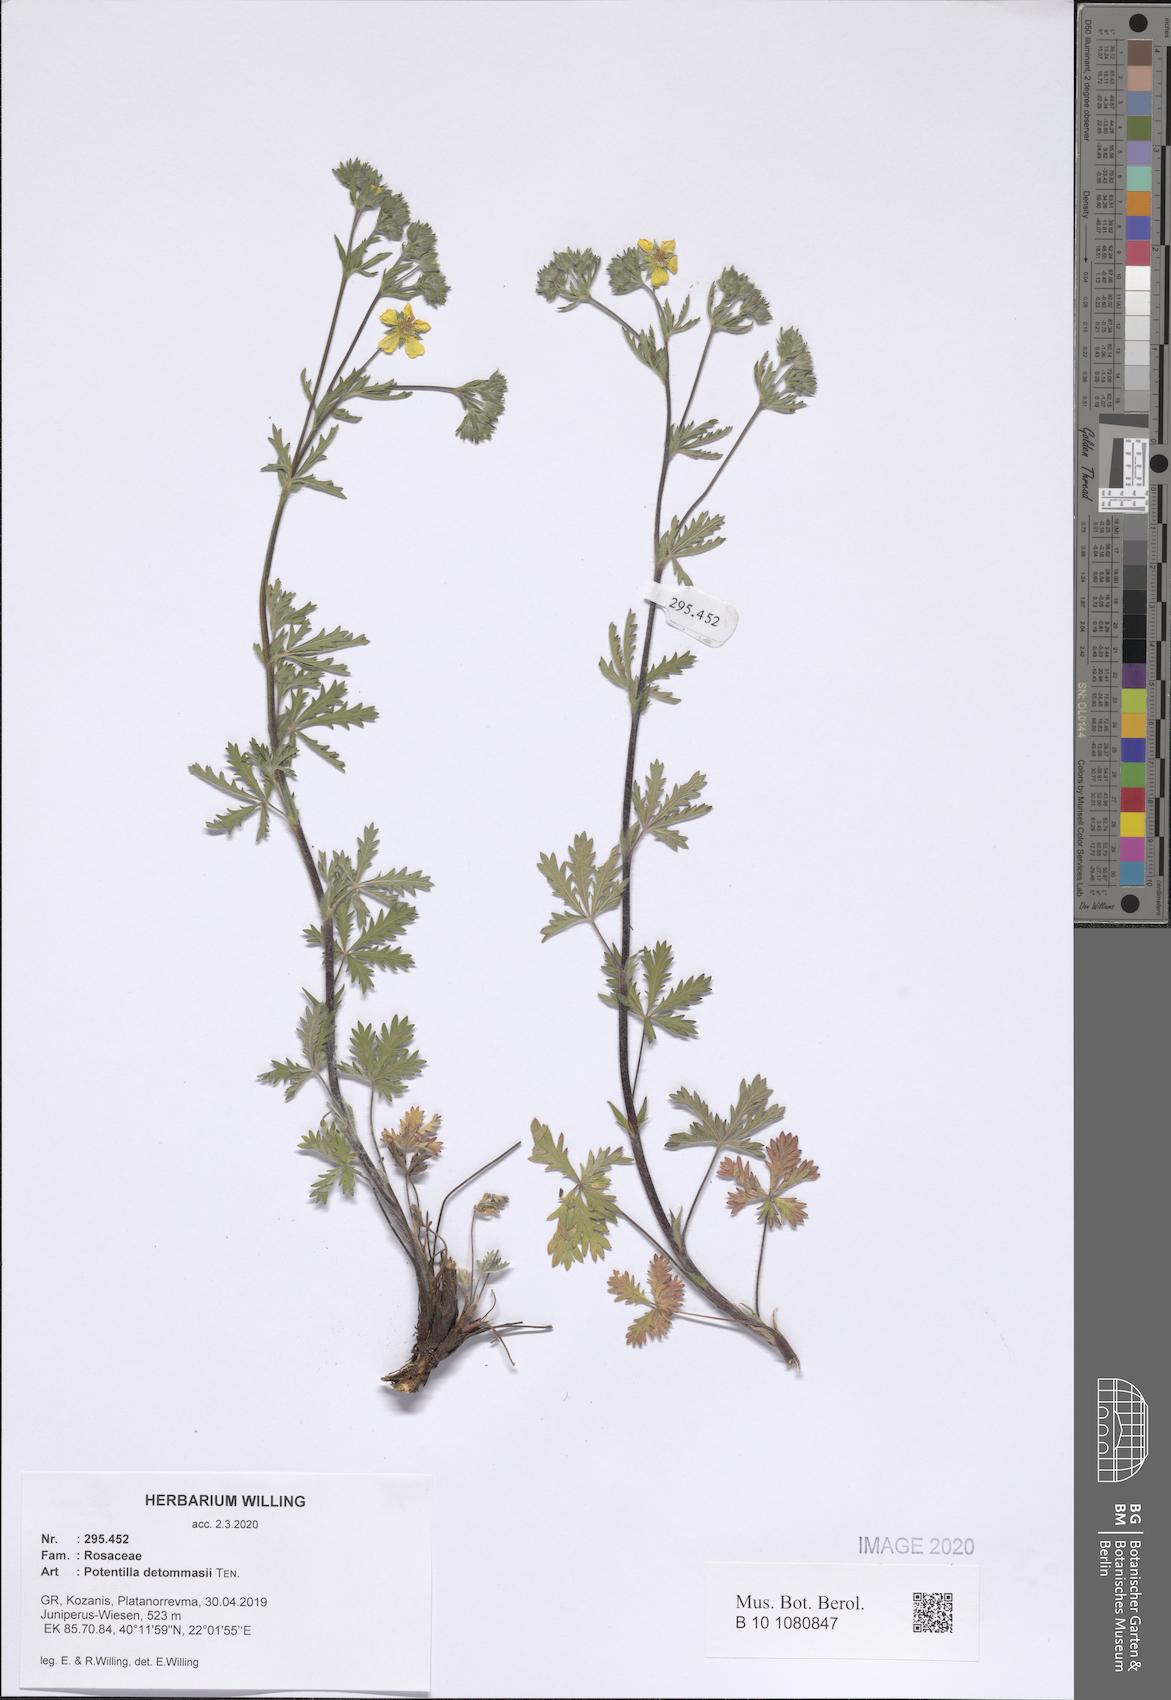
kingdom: Plantae
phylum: Tracheophyta
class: Magnoliopsida
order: Rosales
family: Rosaceae
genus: Potentilla
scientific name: Potentilla detommasii
